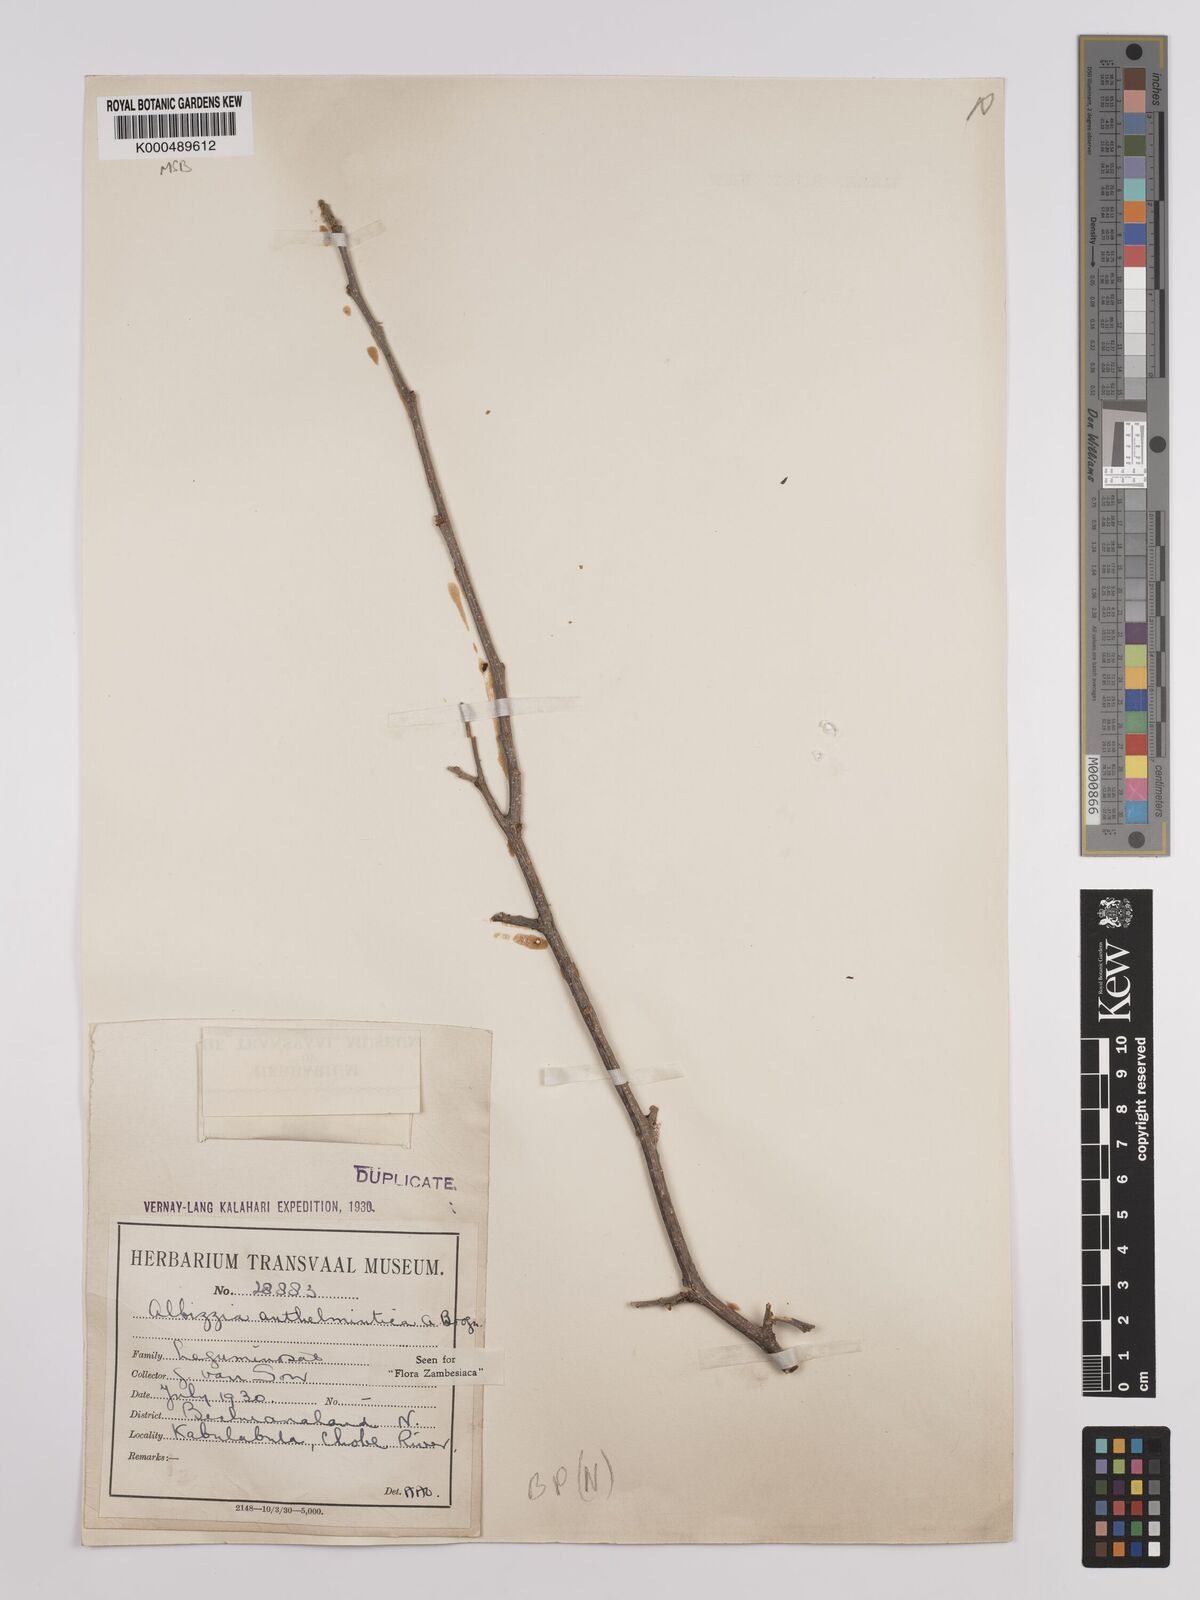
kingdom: Plantae
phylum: Tracheophyta
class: Magnoliopsida
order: Fabales
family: Fabaceae
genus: Albizia
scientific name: Albizia anthelmintica
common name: Worm-bark false-thorn
